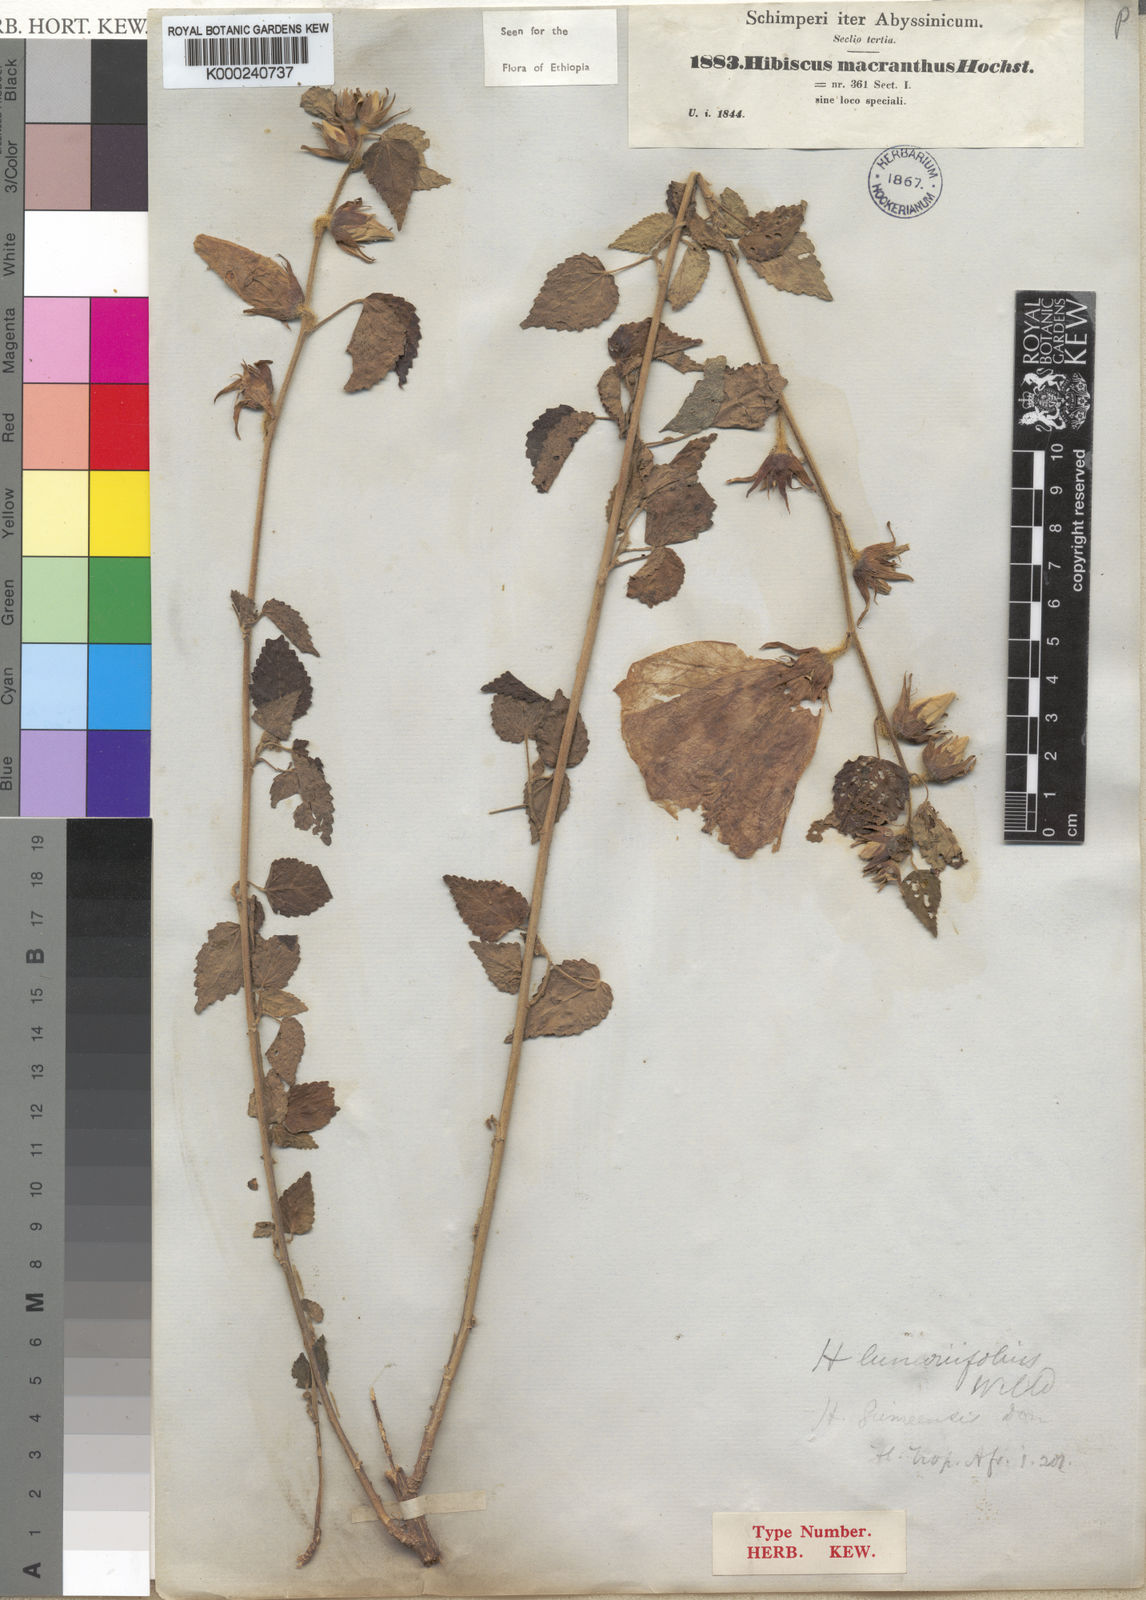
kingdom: Plantae
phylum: Tracheophyta
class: Magnoliopsida
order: Malvales
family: Malvaceae
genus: Hibiscus
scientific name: Hibiscus macranthus
